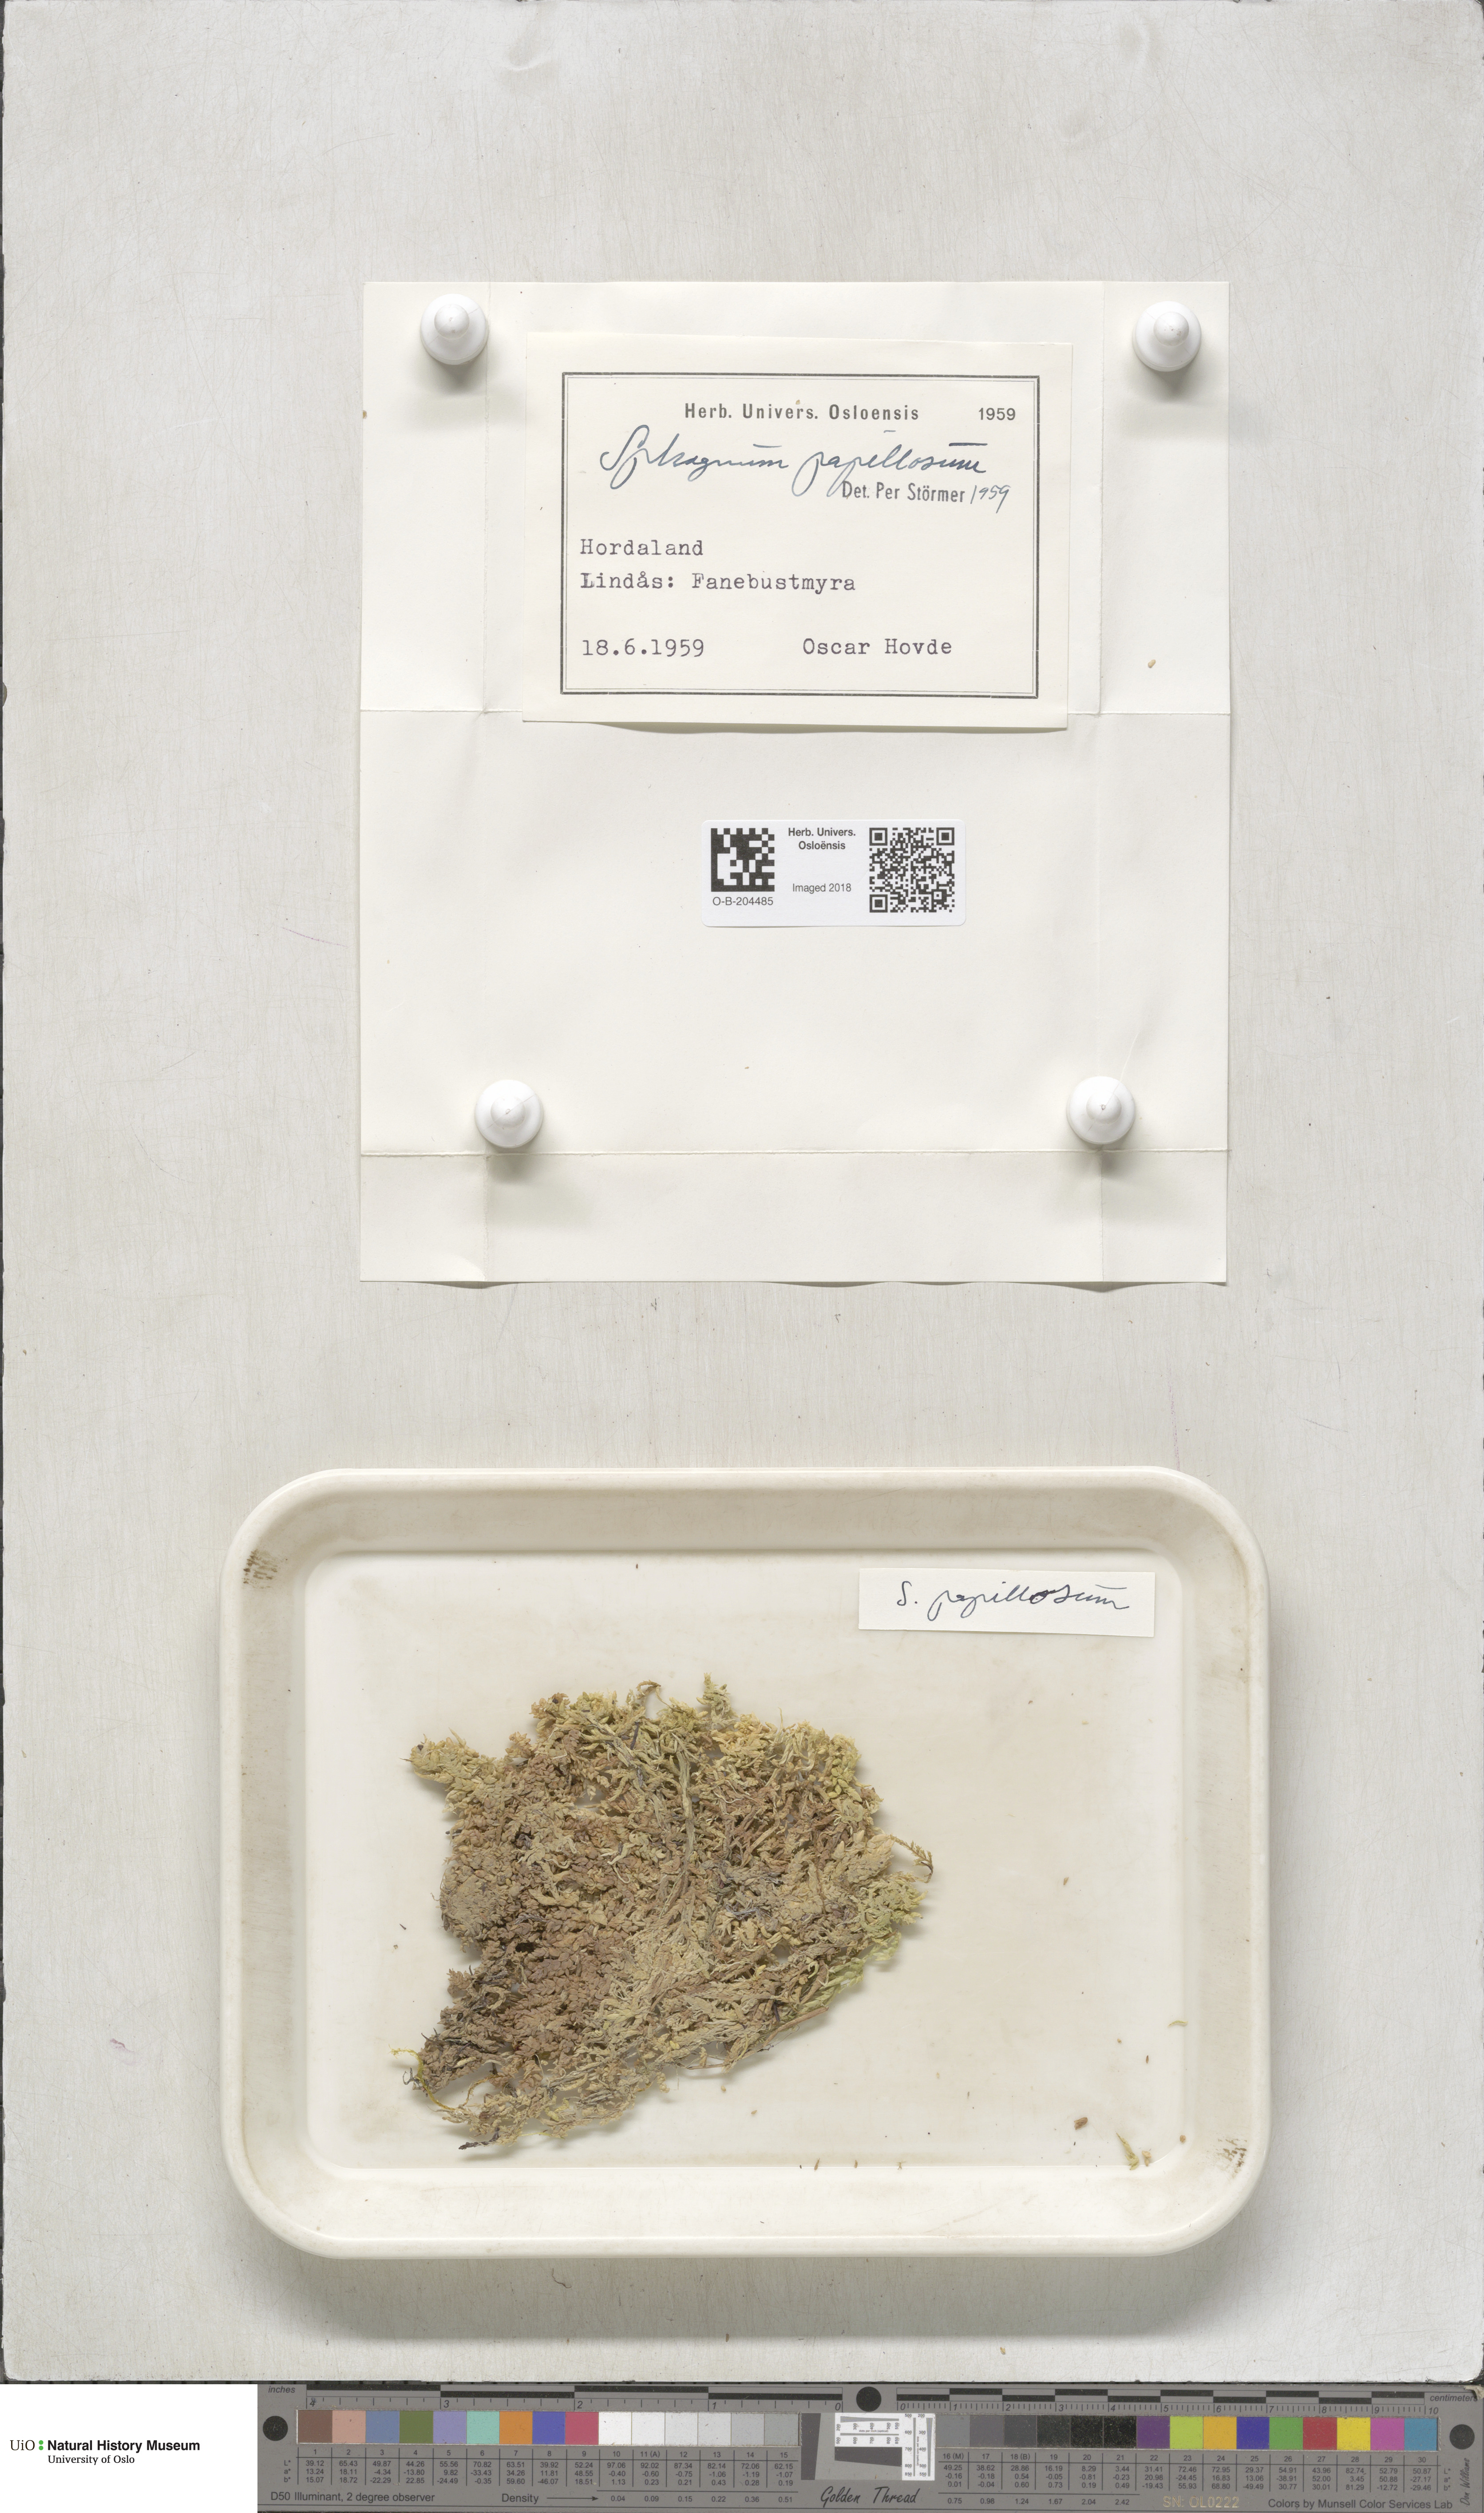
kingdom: Plantae
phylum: Bryophyta
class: Sphagnopsida
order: Sphagnales
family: Sphagnaceae
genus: Sphagnum
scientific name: Sphagnum papillosum
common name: Papillose peat moss
